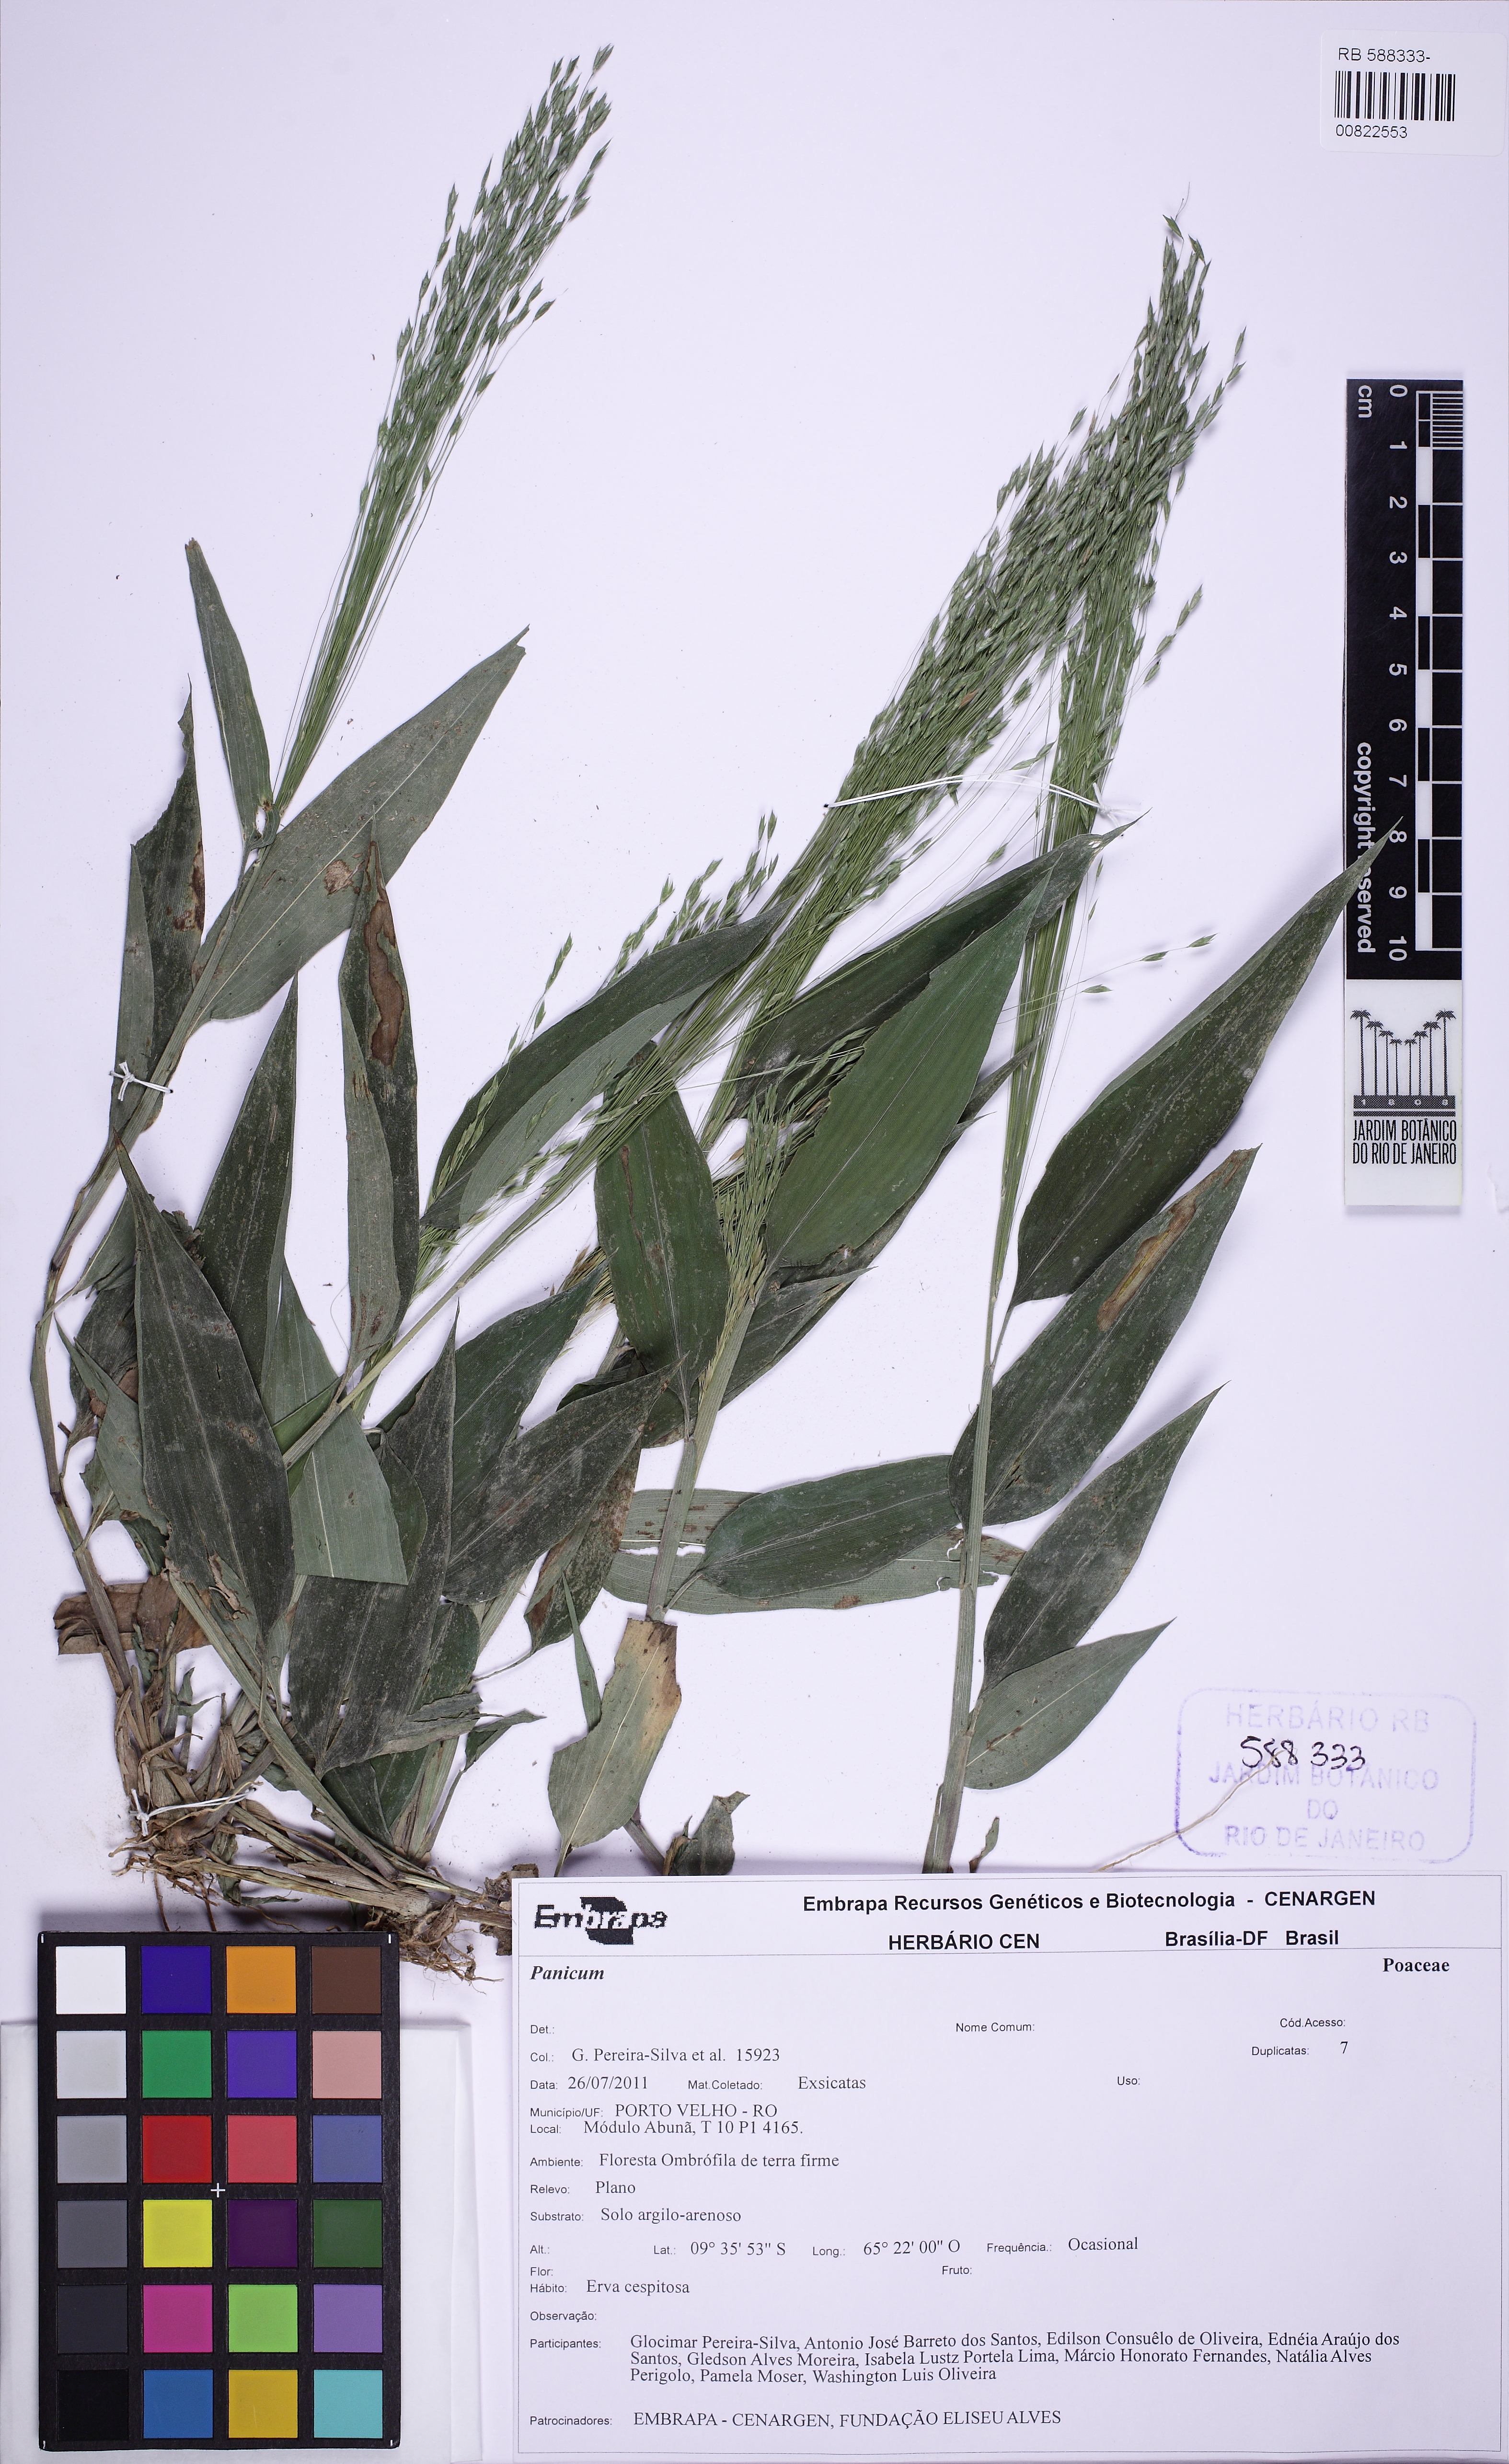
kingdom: Plantae
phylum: Tracheophyta
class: Liliopsida
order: Poales
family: Poaceae
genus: Orthoclada
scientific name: Orthoclada laxa
